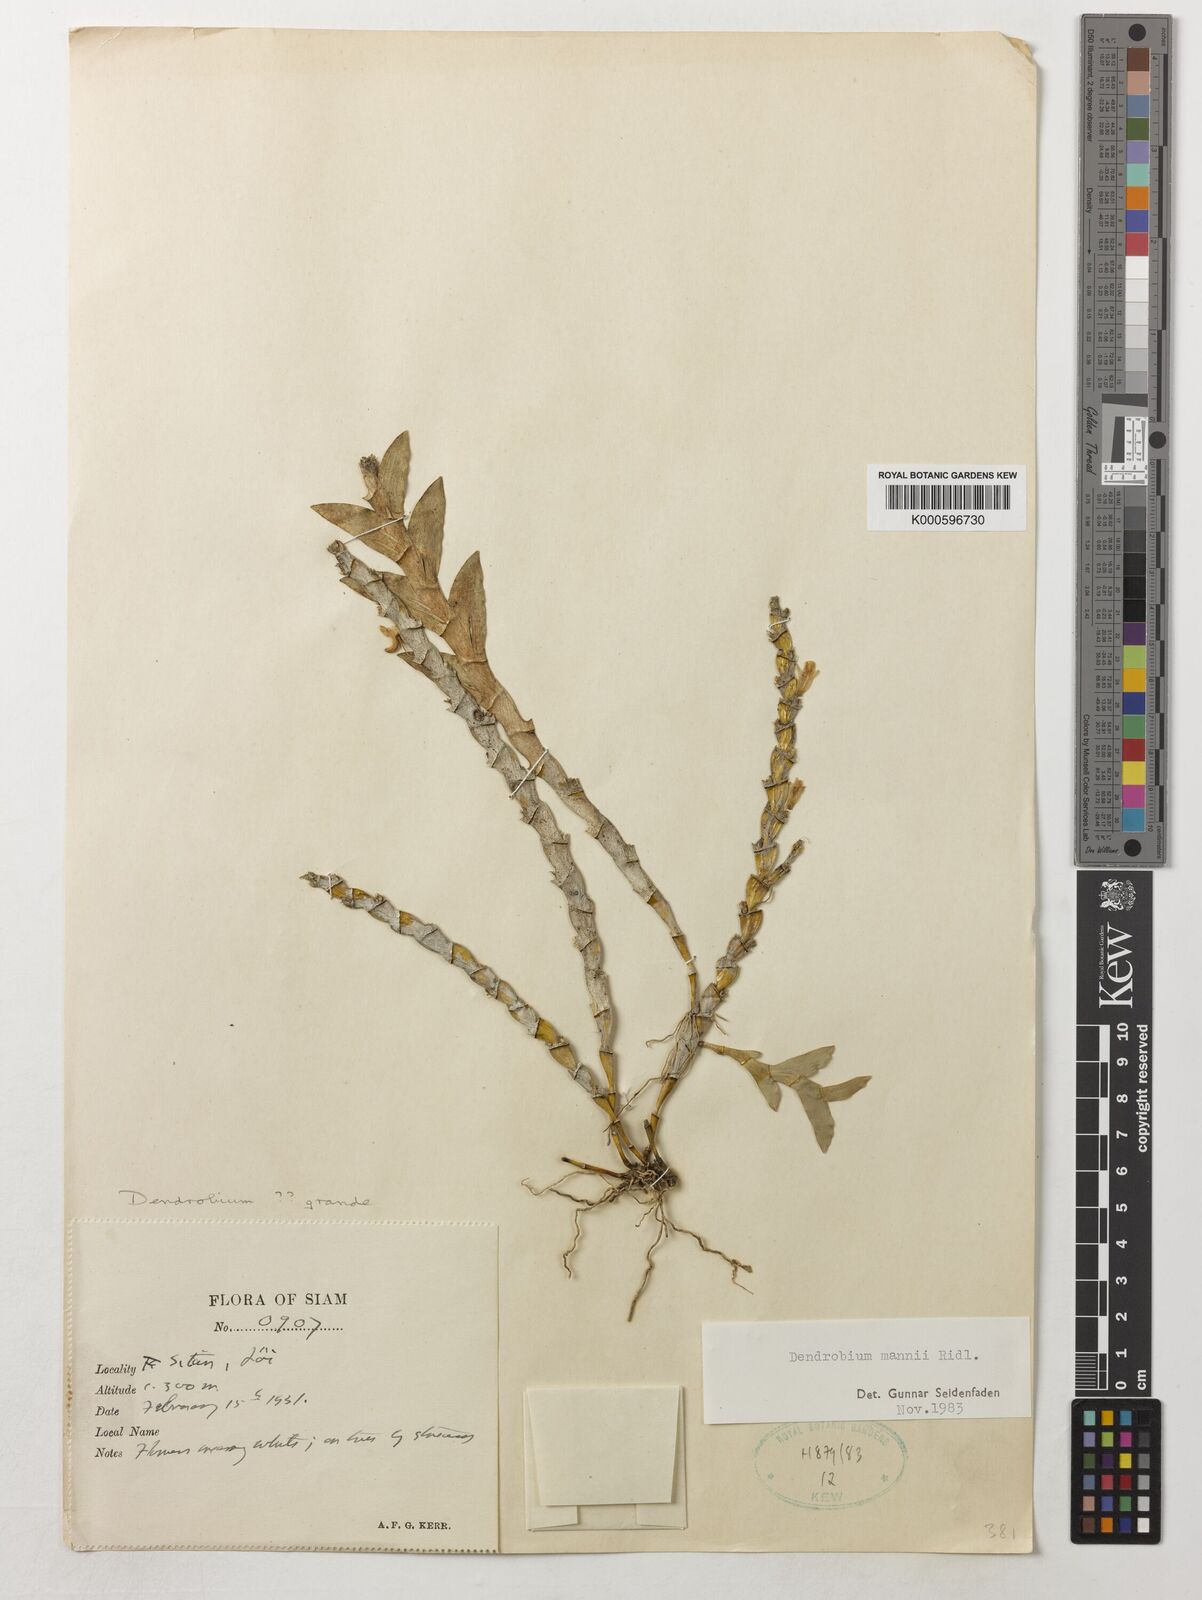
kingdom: Plantae
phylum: Tracheophyta
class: Liliopsida
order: Asparagales
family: Orchidaceae
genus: Dendrobium
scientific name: Dendrobium mannii
